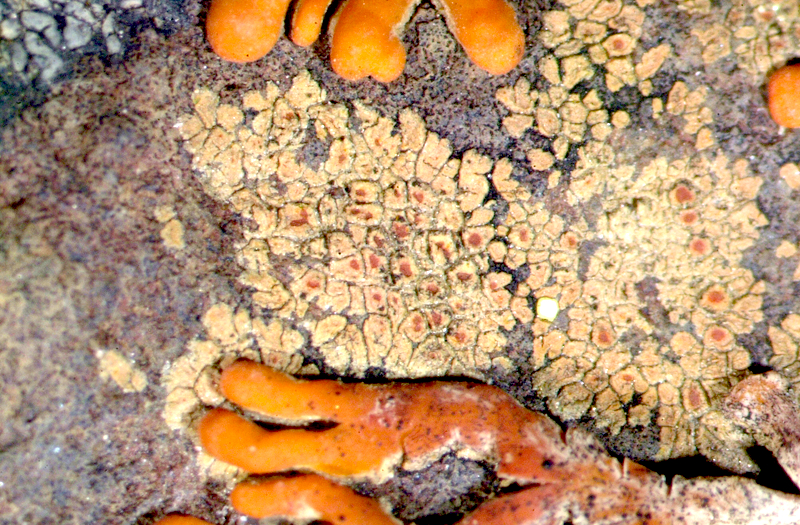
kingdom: Fungi
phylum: Ascomycota
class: Lecanoromycetes
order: Teloschistales
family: Teloschistaceae
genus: Stellarangia
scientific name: Stellarangia elegantissima
